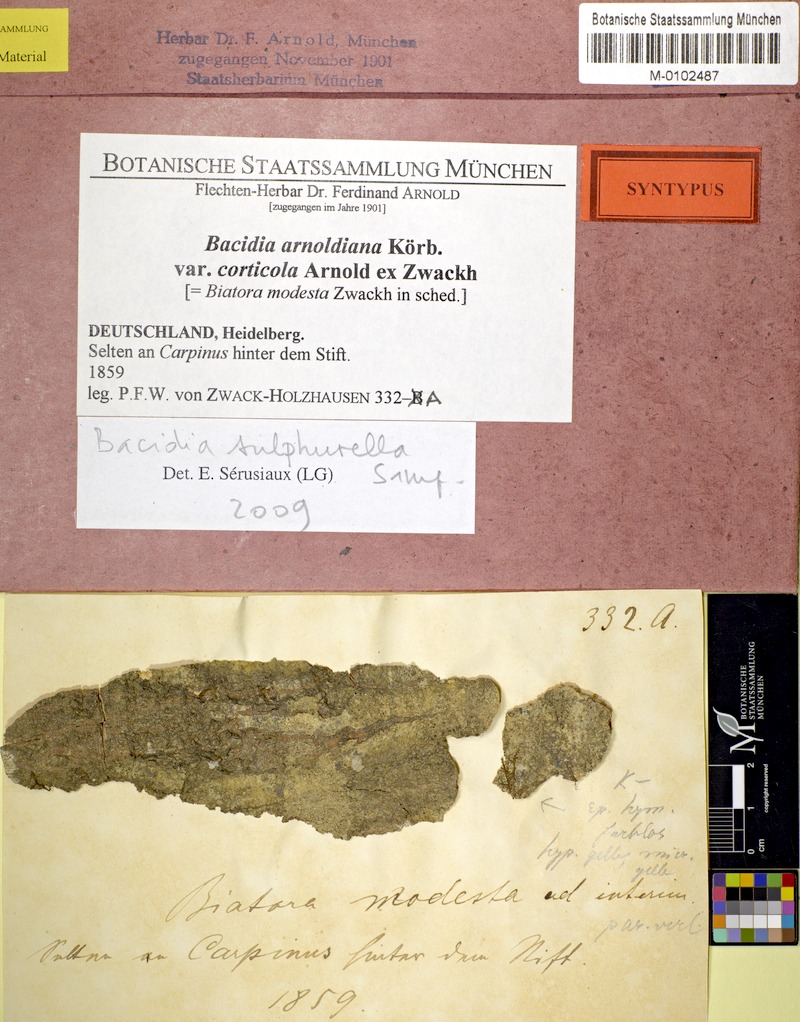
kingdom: Fungi
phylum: Ascomycota
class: Lecanoromycetes
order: Lecanorales
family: Ramalinaceae
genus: Bacidina
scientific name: Bacidina sulphurella
